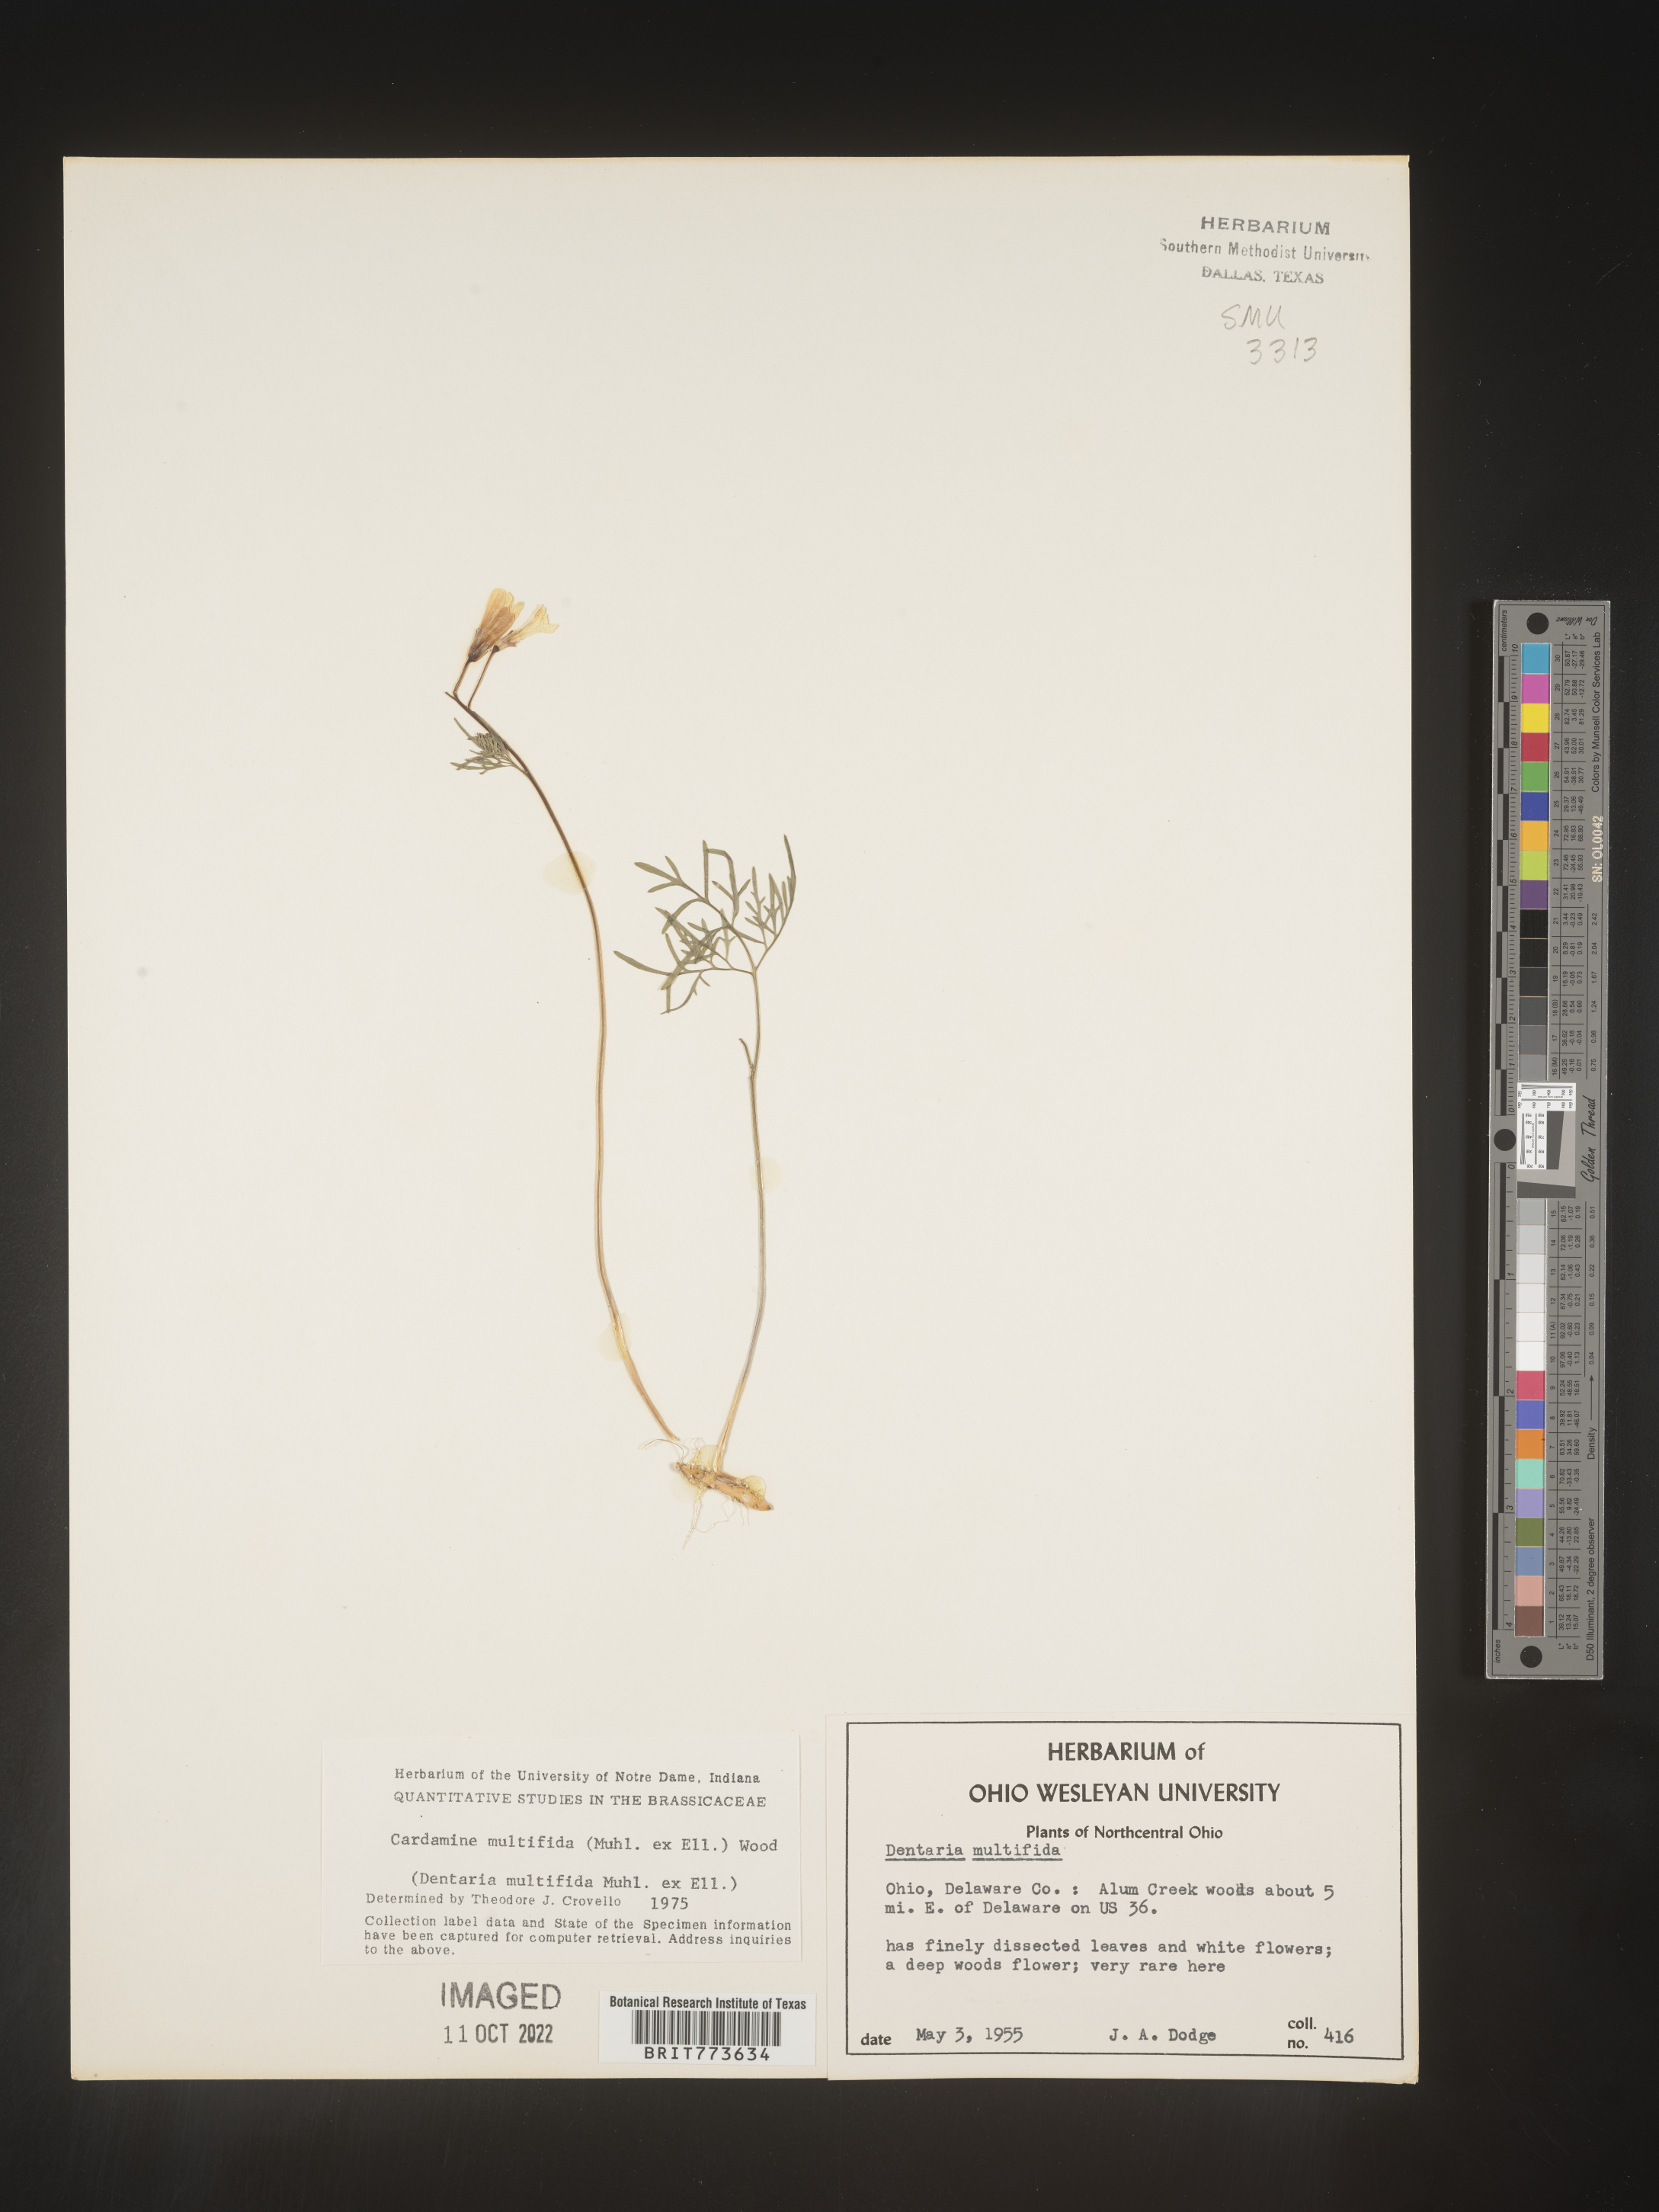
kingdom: Plantae
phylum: Tracheophyta
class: Magnoliopsida
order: Brassicales
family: Brassicaceae
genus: Cardamine
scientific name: Cardamine
